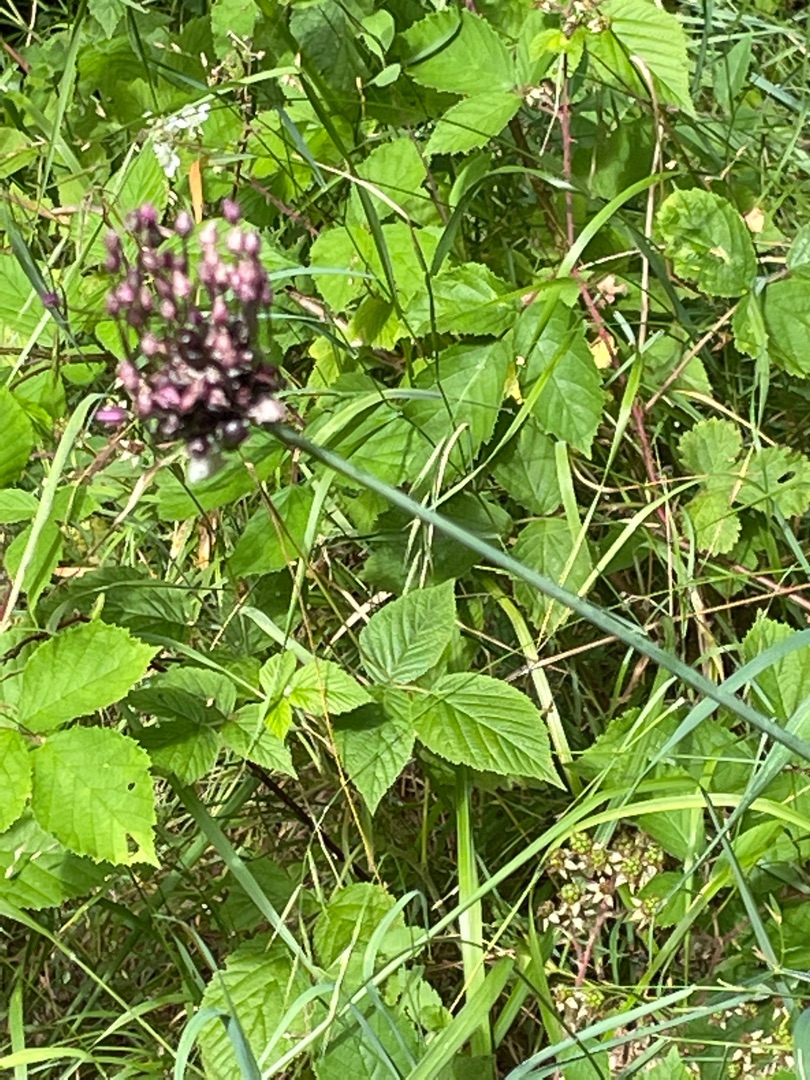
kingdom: Plantae
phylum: Tracheophyta
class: Liliopsida
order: Asparagales
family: Amaryllidaceae
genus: Allium
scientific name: Allium scorodoprasum
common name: Skov-løg
